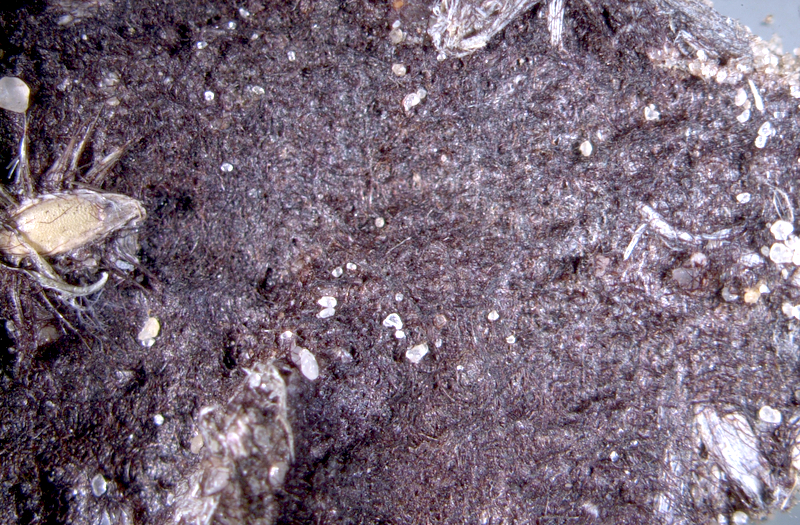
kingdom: Bacteria
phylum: Cyanobacteria
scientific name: Cyanobacteria
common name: Cyanobacteria
